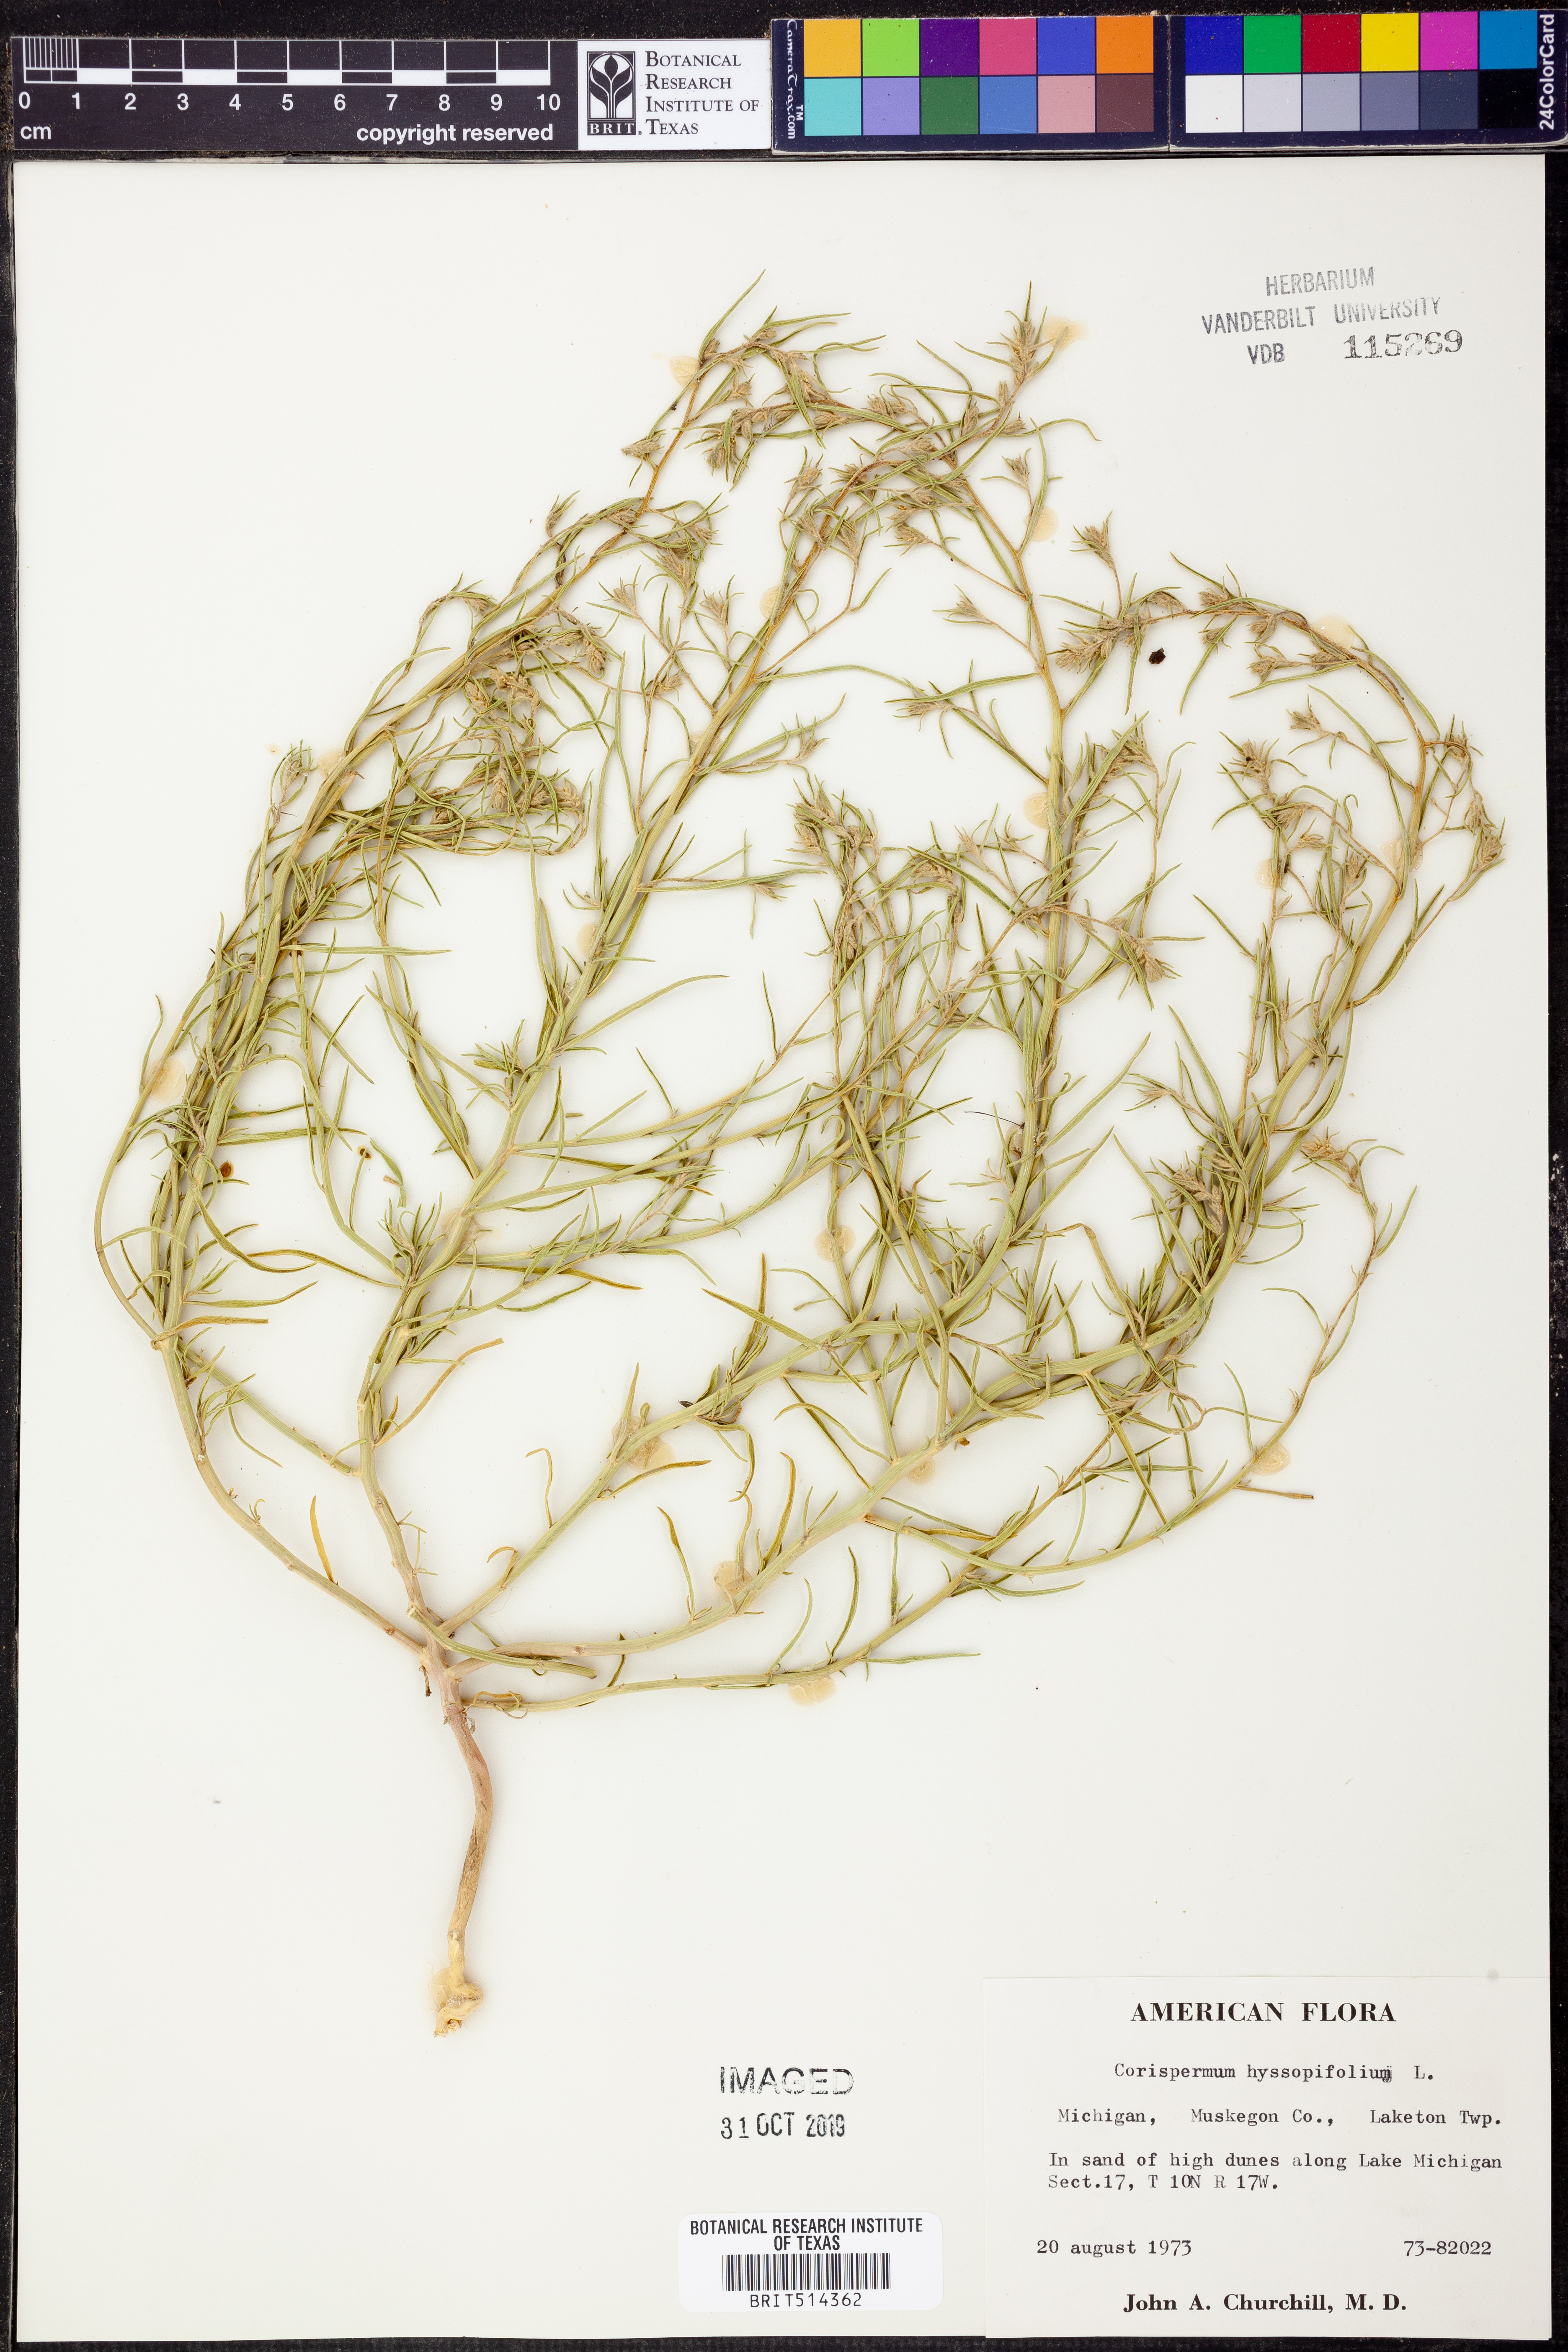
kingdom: Plantae
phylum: Tracheophyta
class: Magnoliopsida
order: Caryophyllales
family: Amaranthaceae
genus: Corispermum
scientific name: Corispermum hyssopifolium
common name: Bugseed
